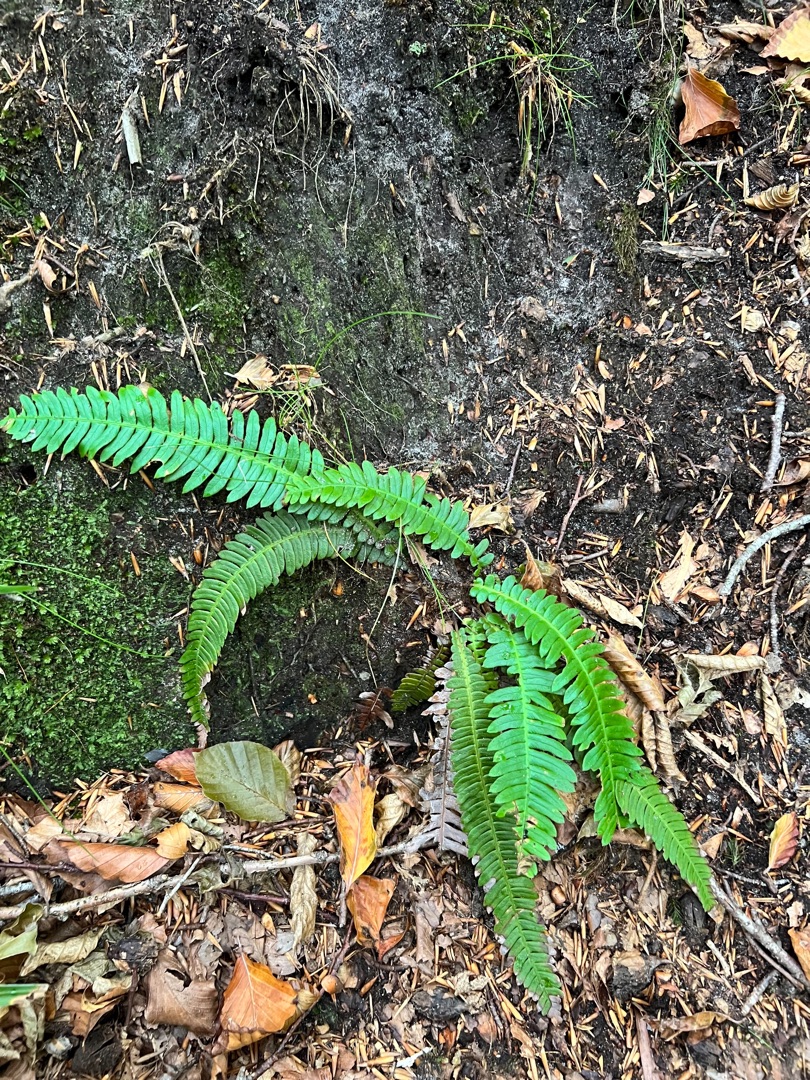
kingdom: Plantae
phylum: Tracheophyta
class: Polypodiopsida
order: Polypodiales
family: Blechnaceae
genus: Struthiopteris
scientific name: Struthiopteris spicant
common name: Kambregne
